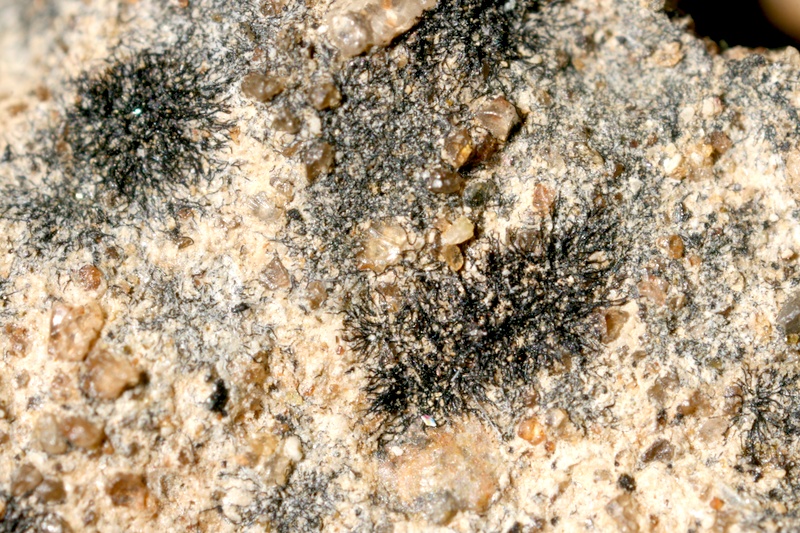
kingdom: Bacteria
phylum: Cyanobacteria
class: Cyanobacteriia
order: Cyanobacteriales
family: Scytonemataceae
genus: Scytonema
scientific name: Scytonema
